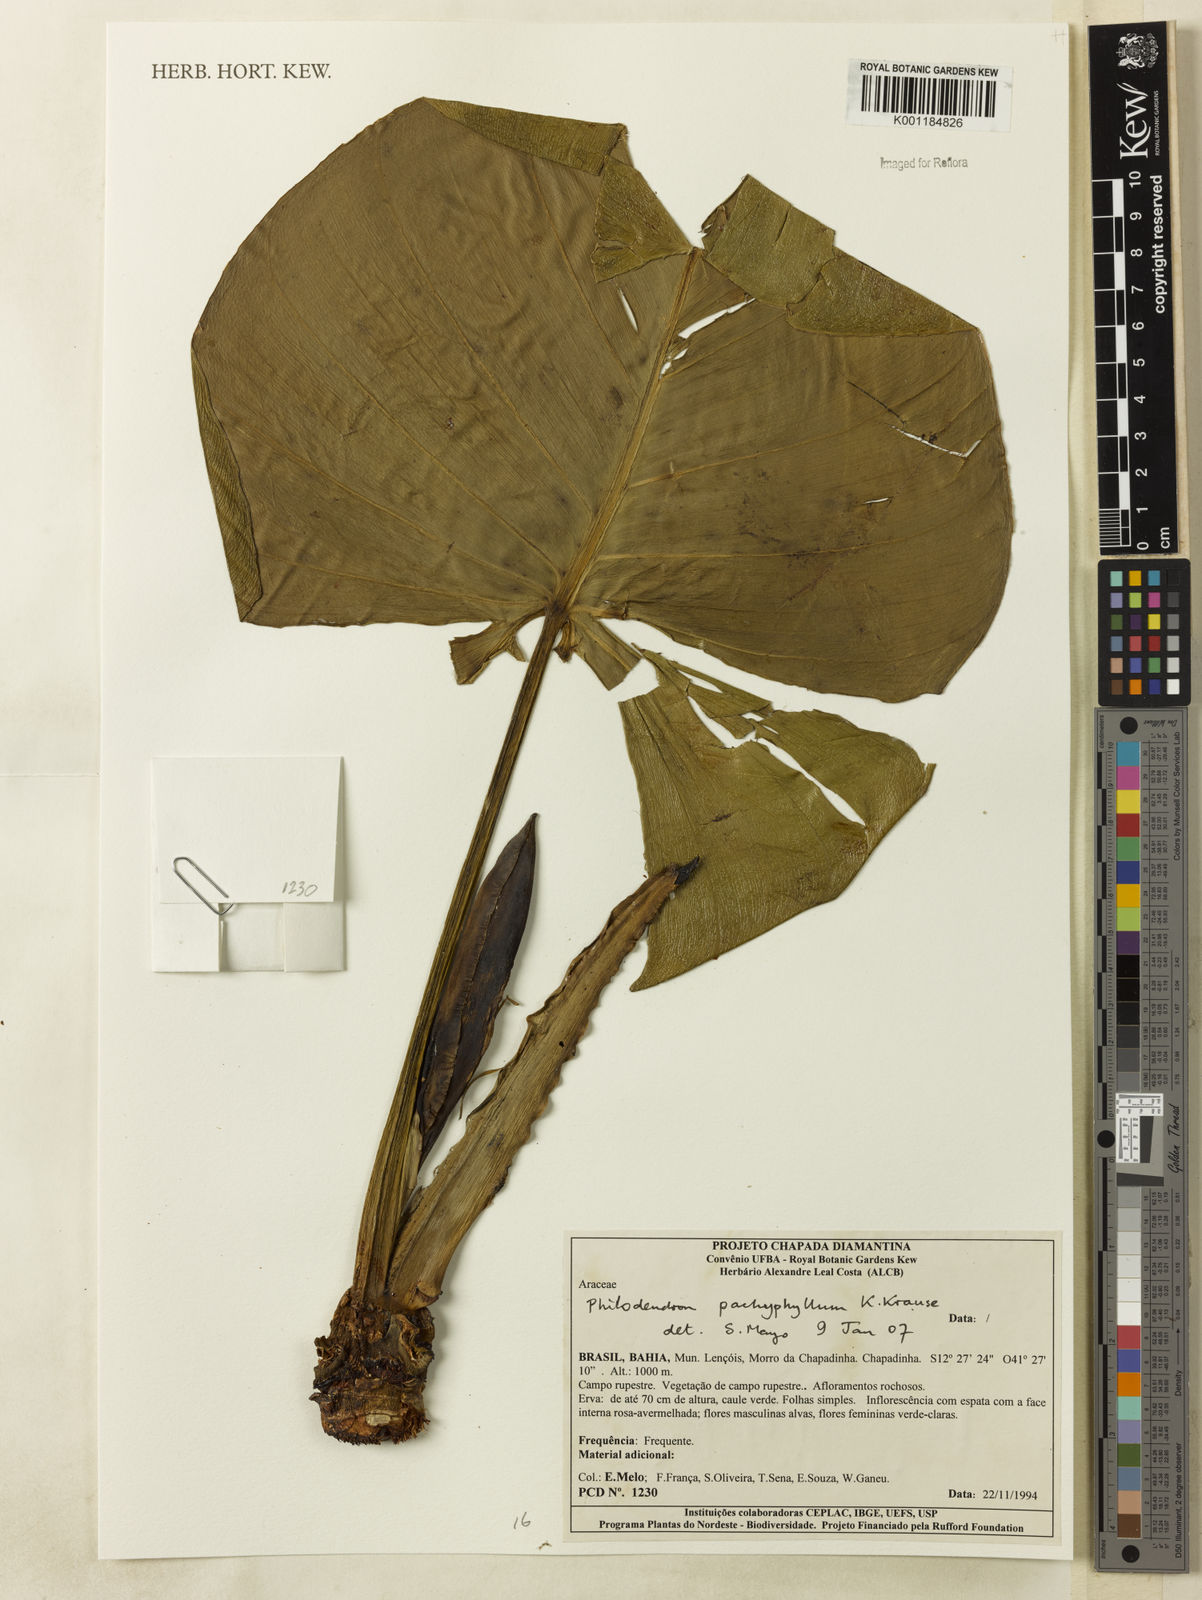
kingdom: Plantae
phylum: Tracheophyta
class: Liliopsida
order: Alismatales
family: Araceae
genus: Philodendron
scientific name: Philodendron pachyphyllum
